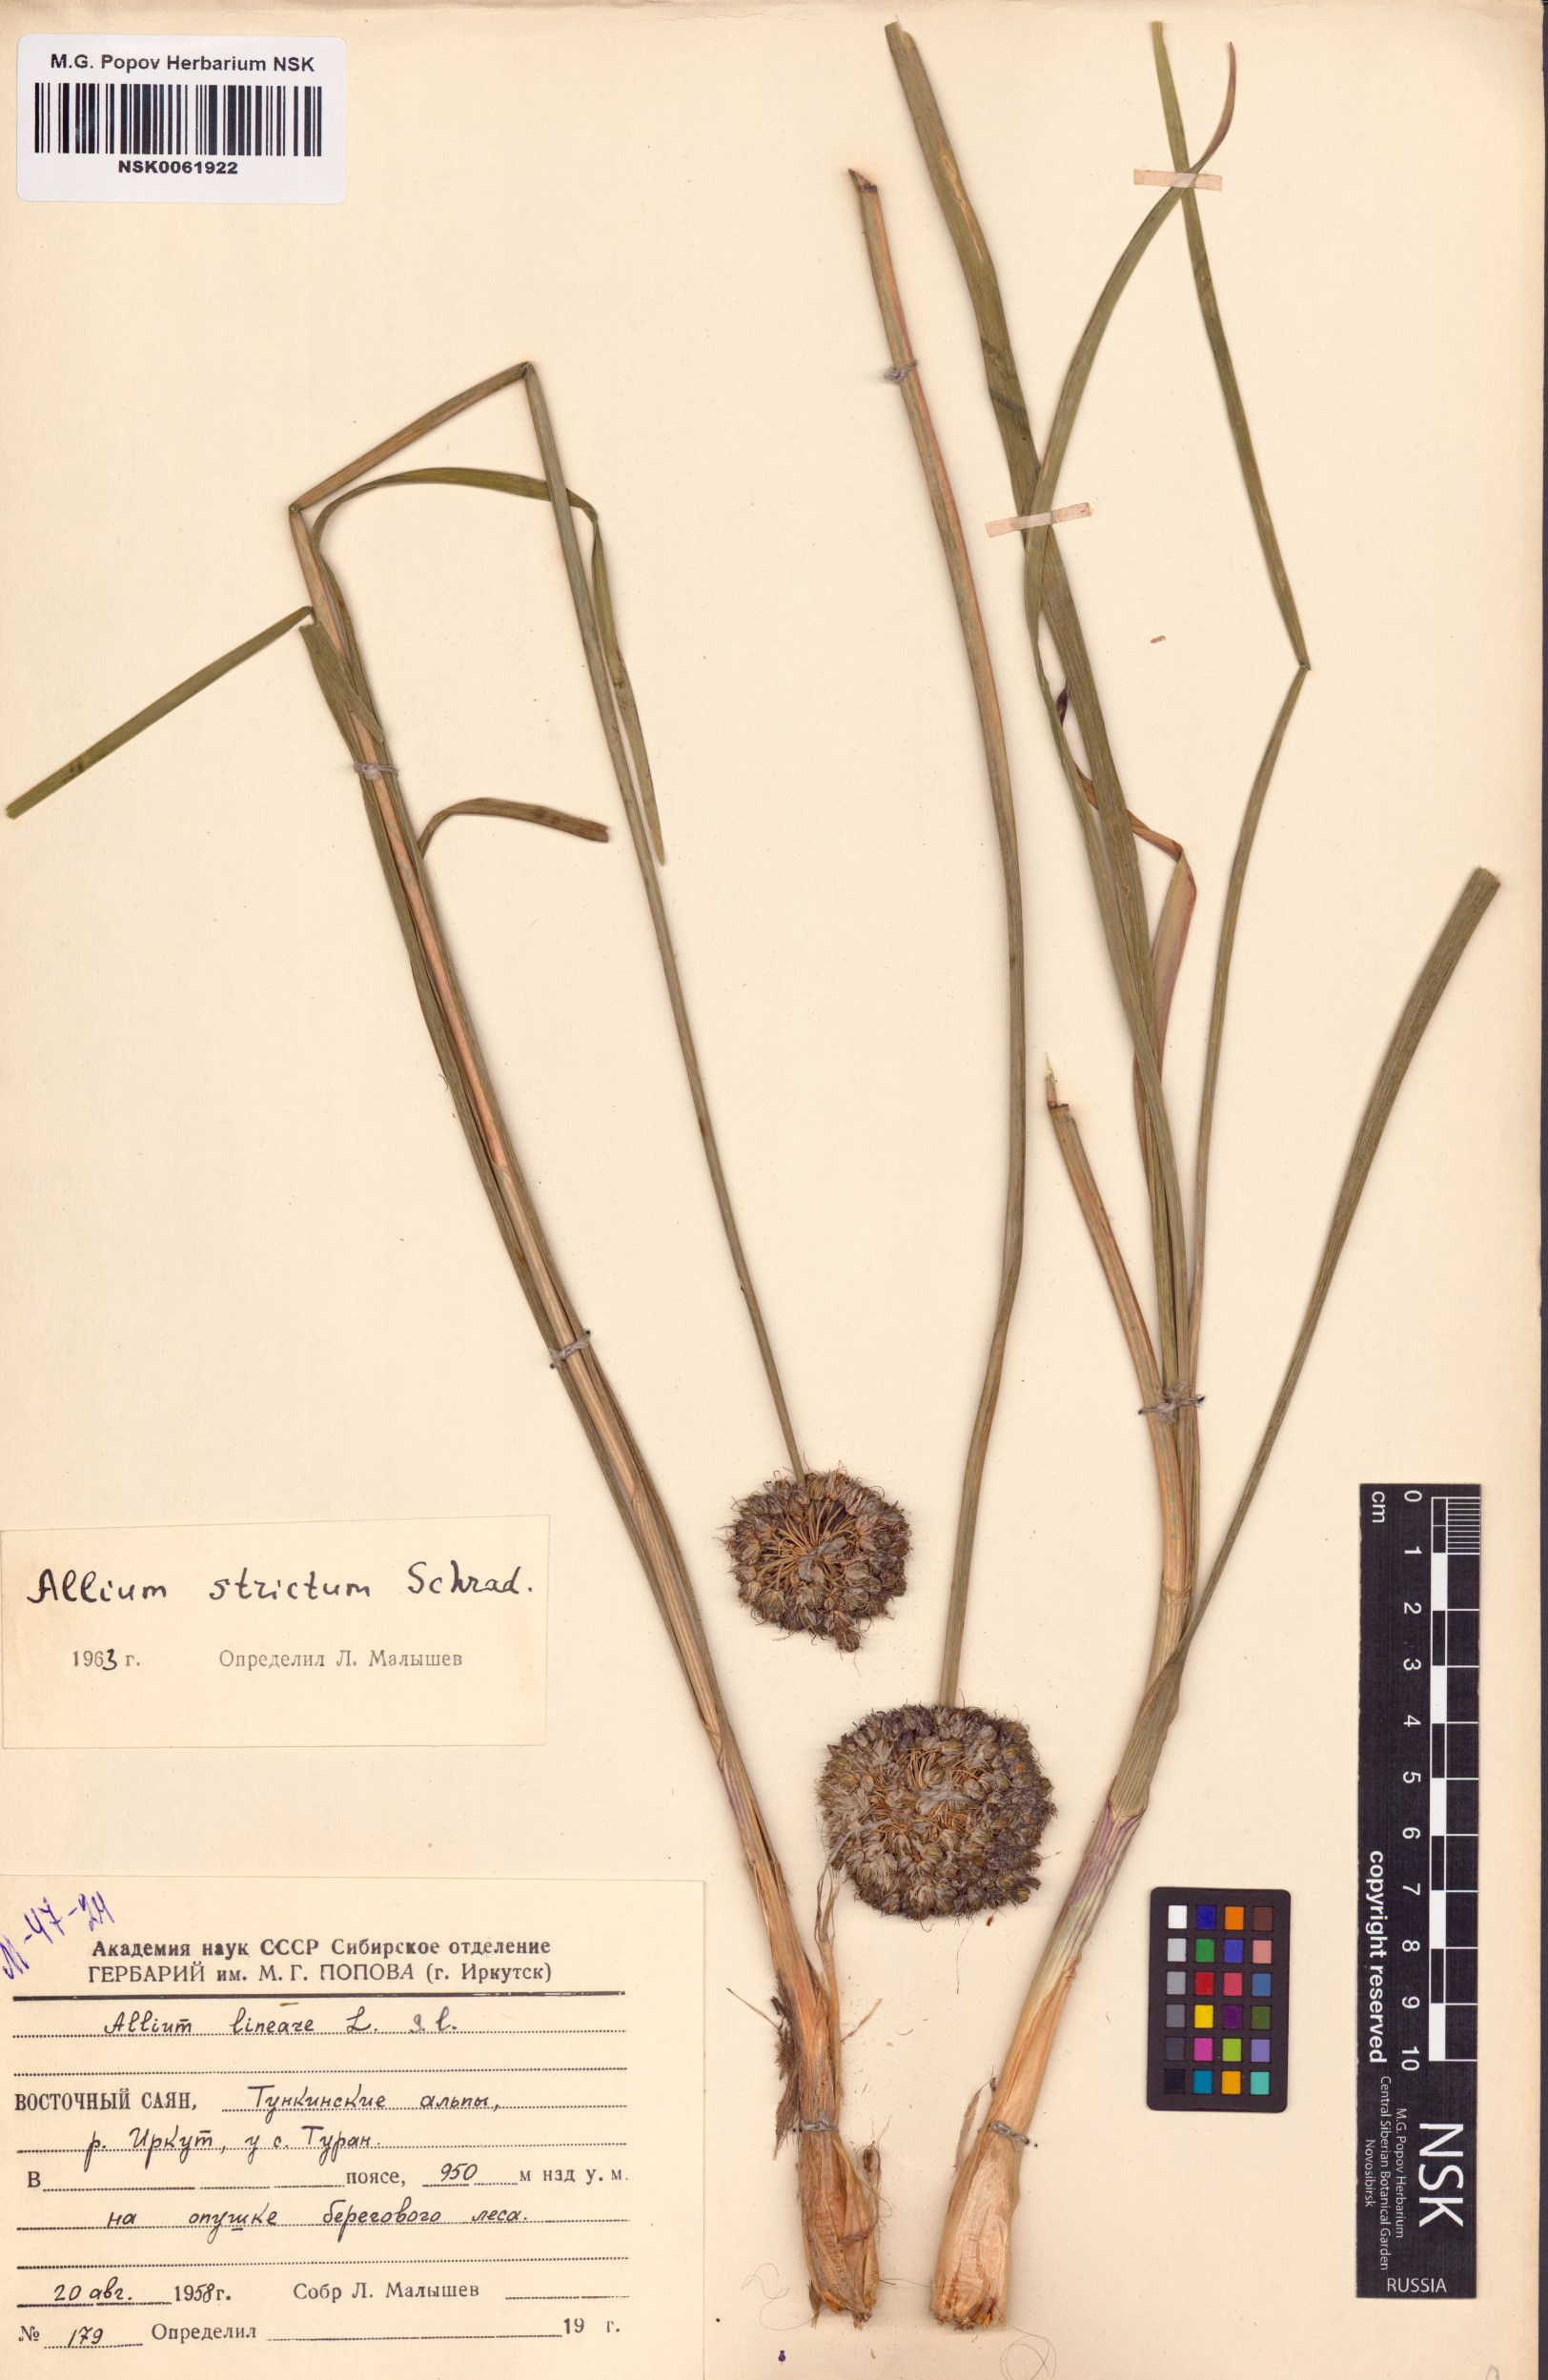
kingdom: Plantae
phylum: Tracheophyta
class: Liliopsida
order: Asparagales
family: Amaryllidaceae
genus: Allium
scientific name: Allium strictum
